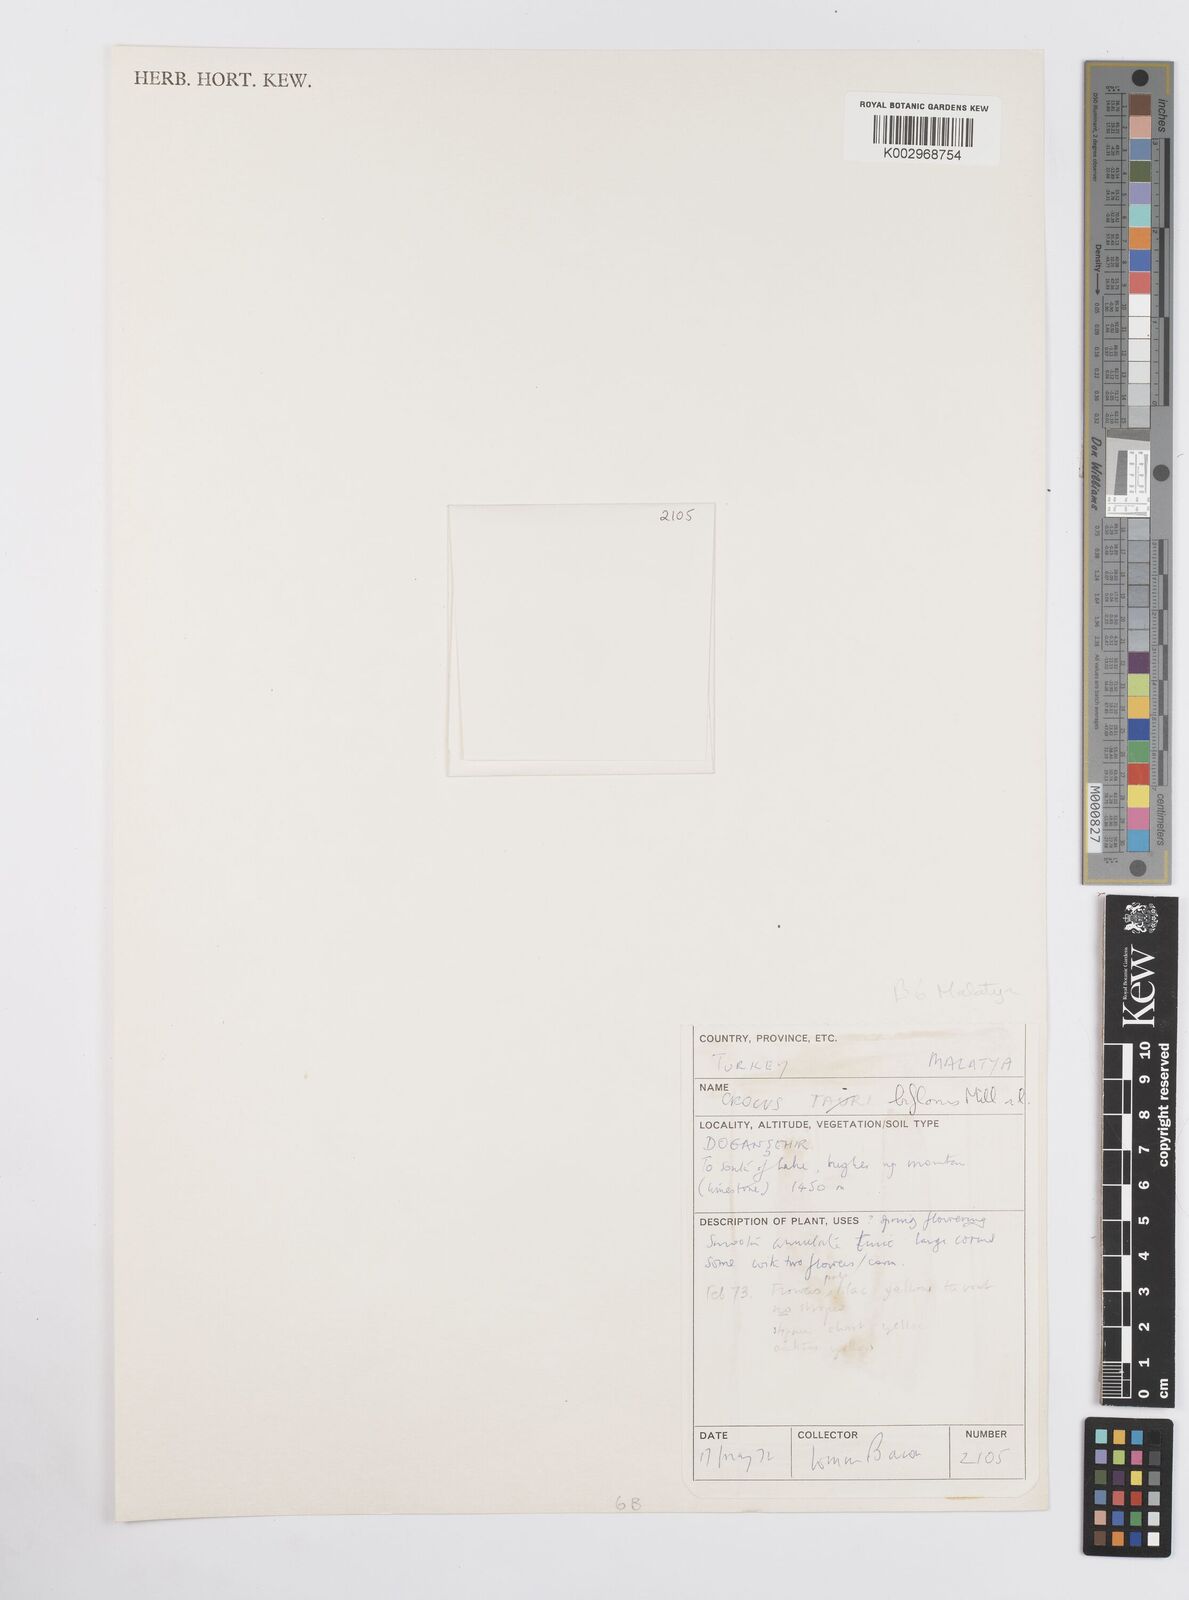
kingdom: Plantae
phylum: Tracheophyta
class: Liliopsida
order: Asparagales
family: Iridaceae
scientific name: Iridaceae
